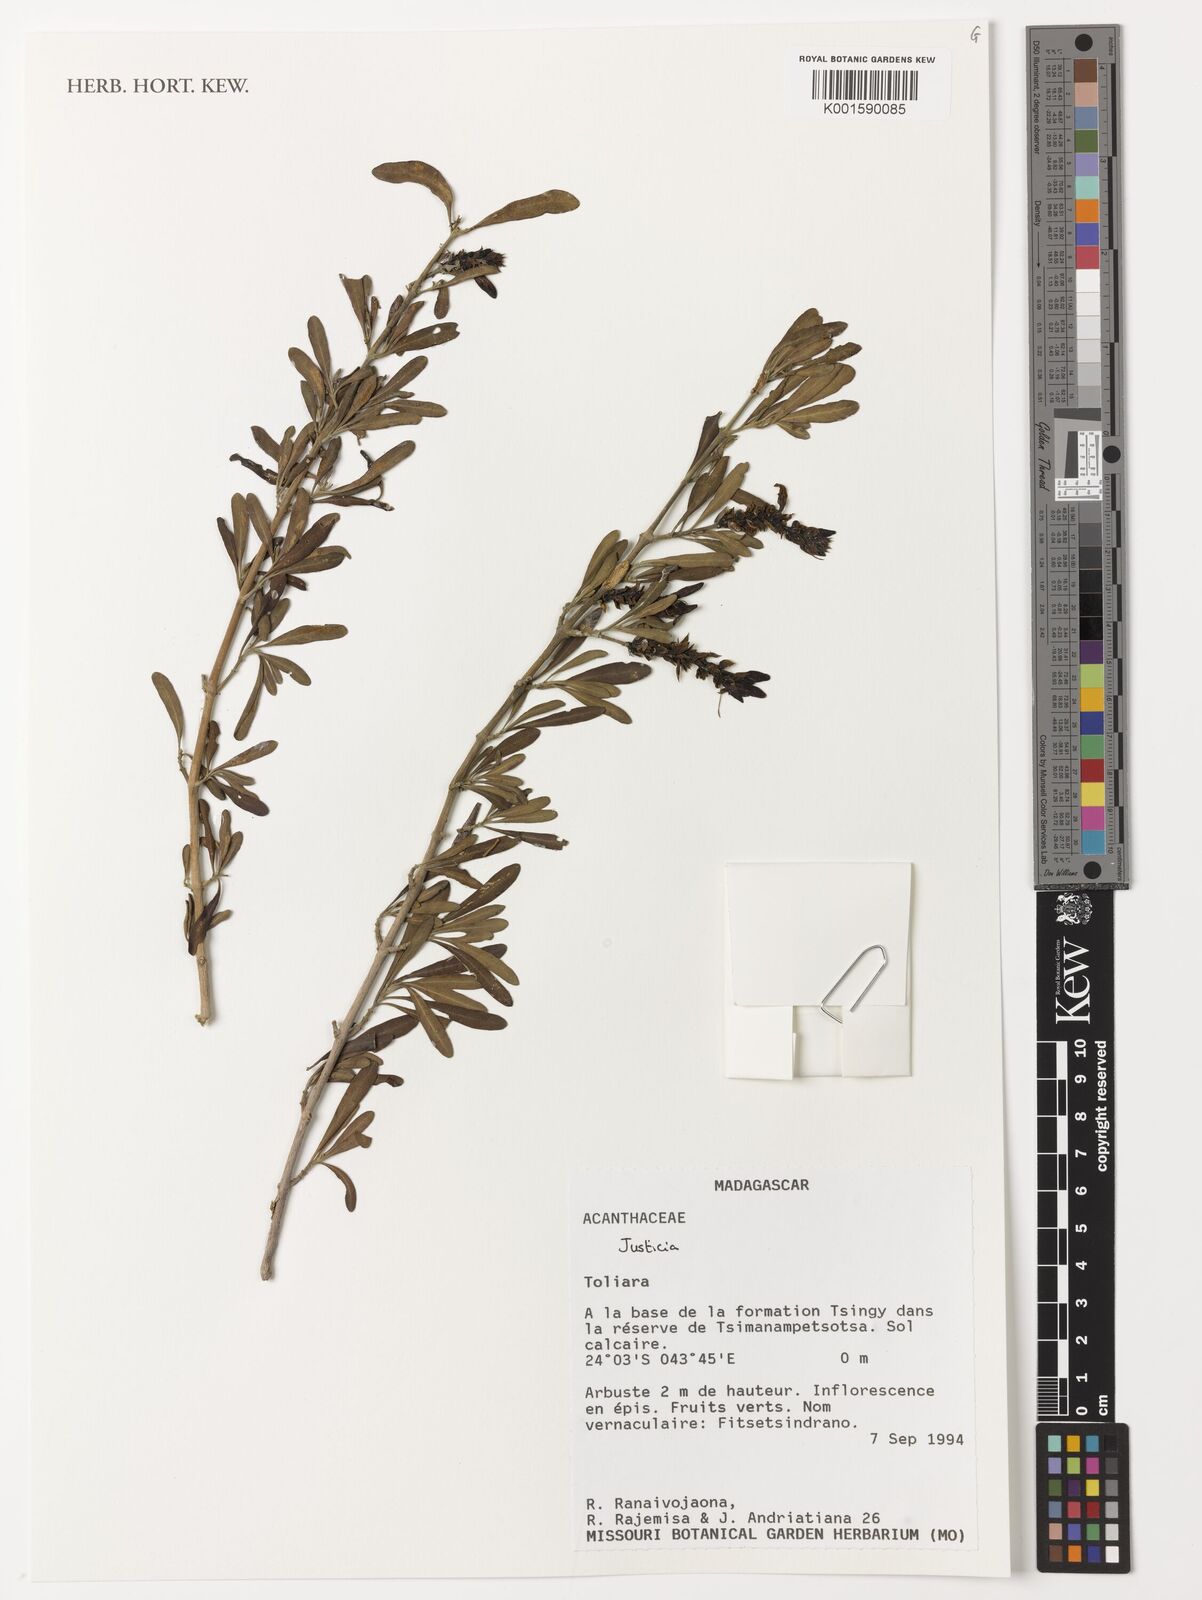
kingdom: Plantae
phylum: Tracheophyta
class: Magnoliopsida
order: Lamiales
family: Acanthaceae
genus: Justicia
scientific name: Justicia
